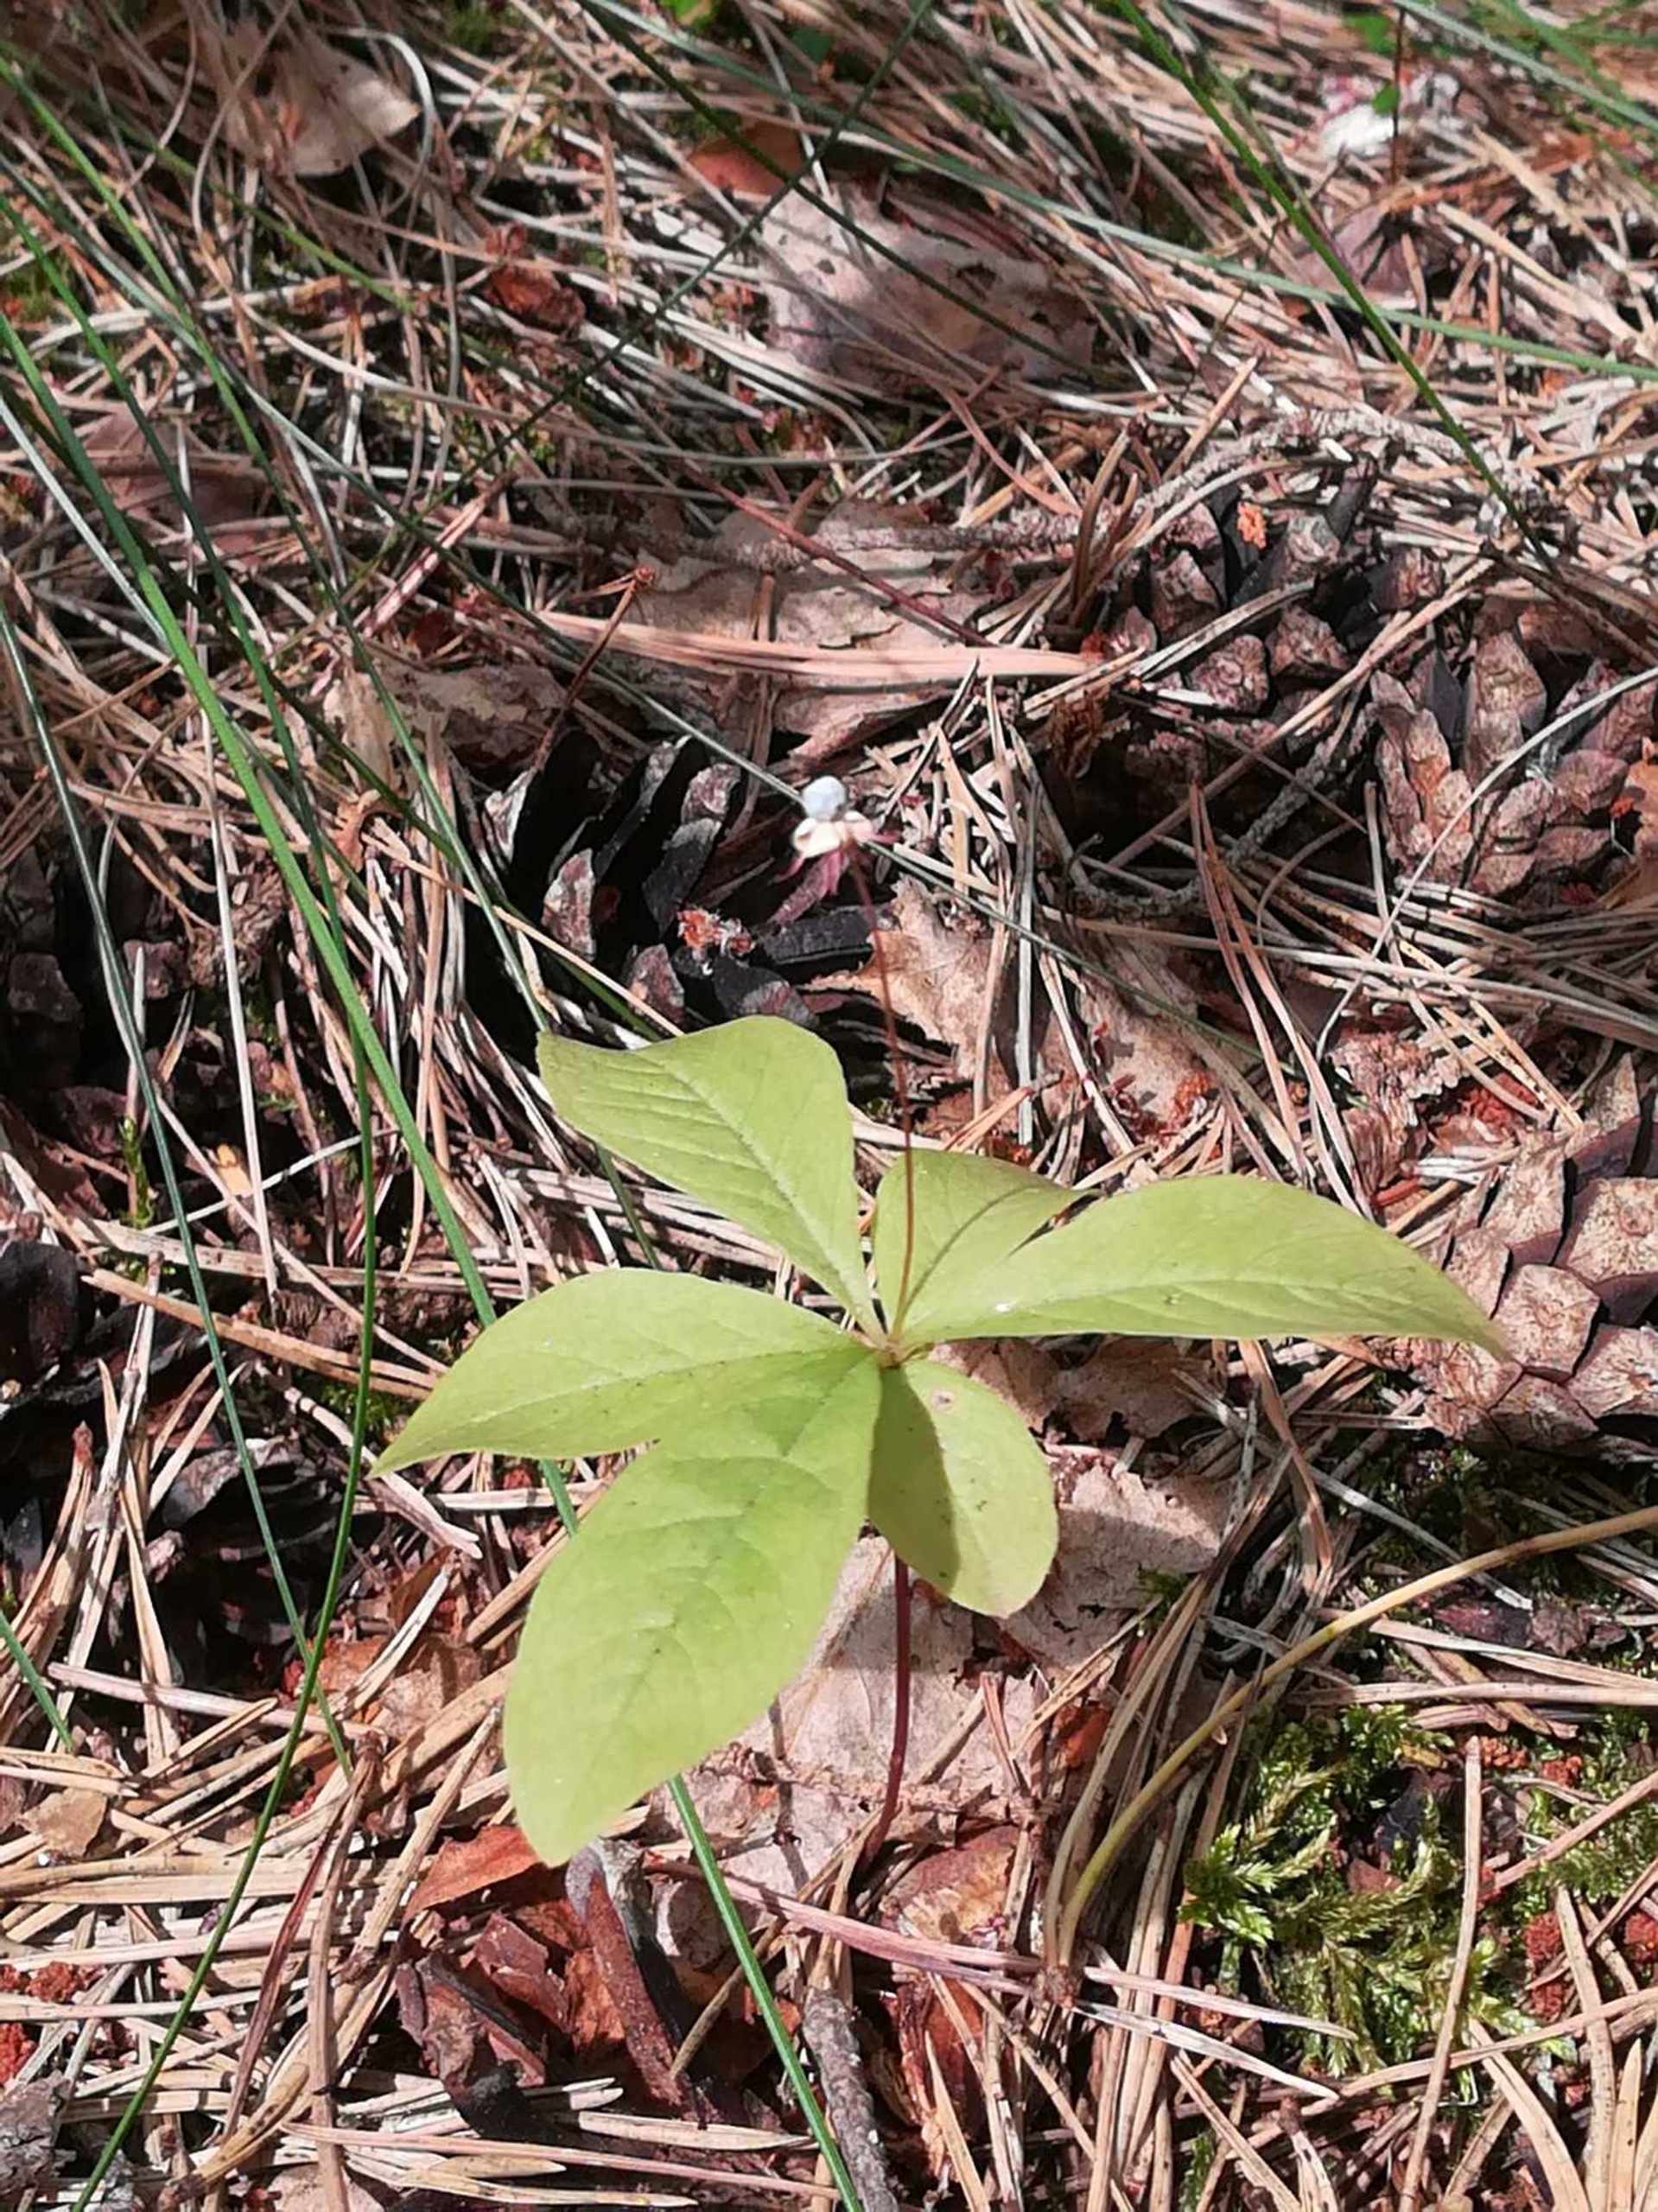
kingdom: Plantae
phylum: Tracheophyta
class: Magnoliopsida
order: Ericales
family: Primulaceae
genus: Lysimachia
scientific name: Lysimachia europaea
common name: Skovstjerne
